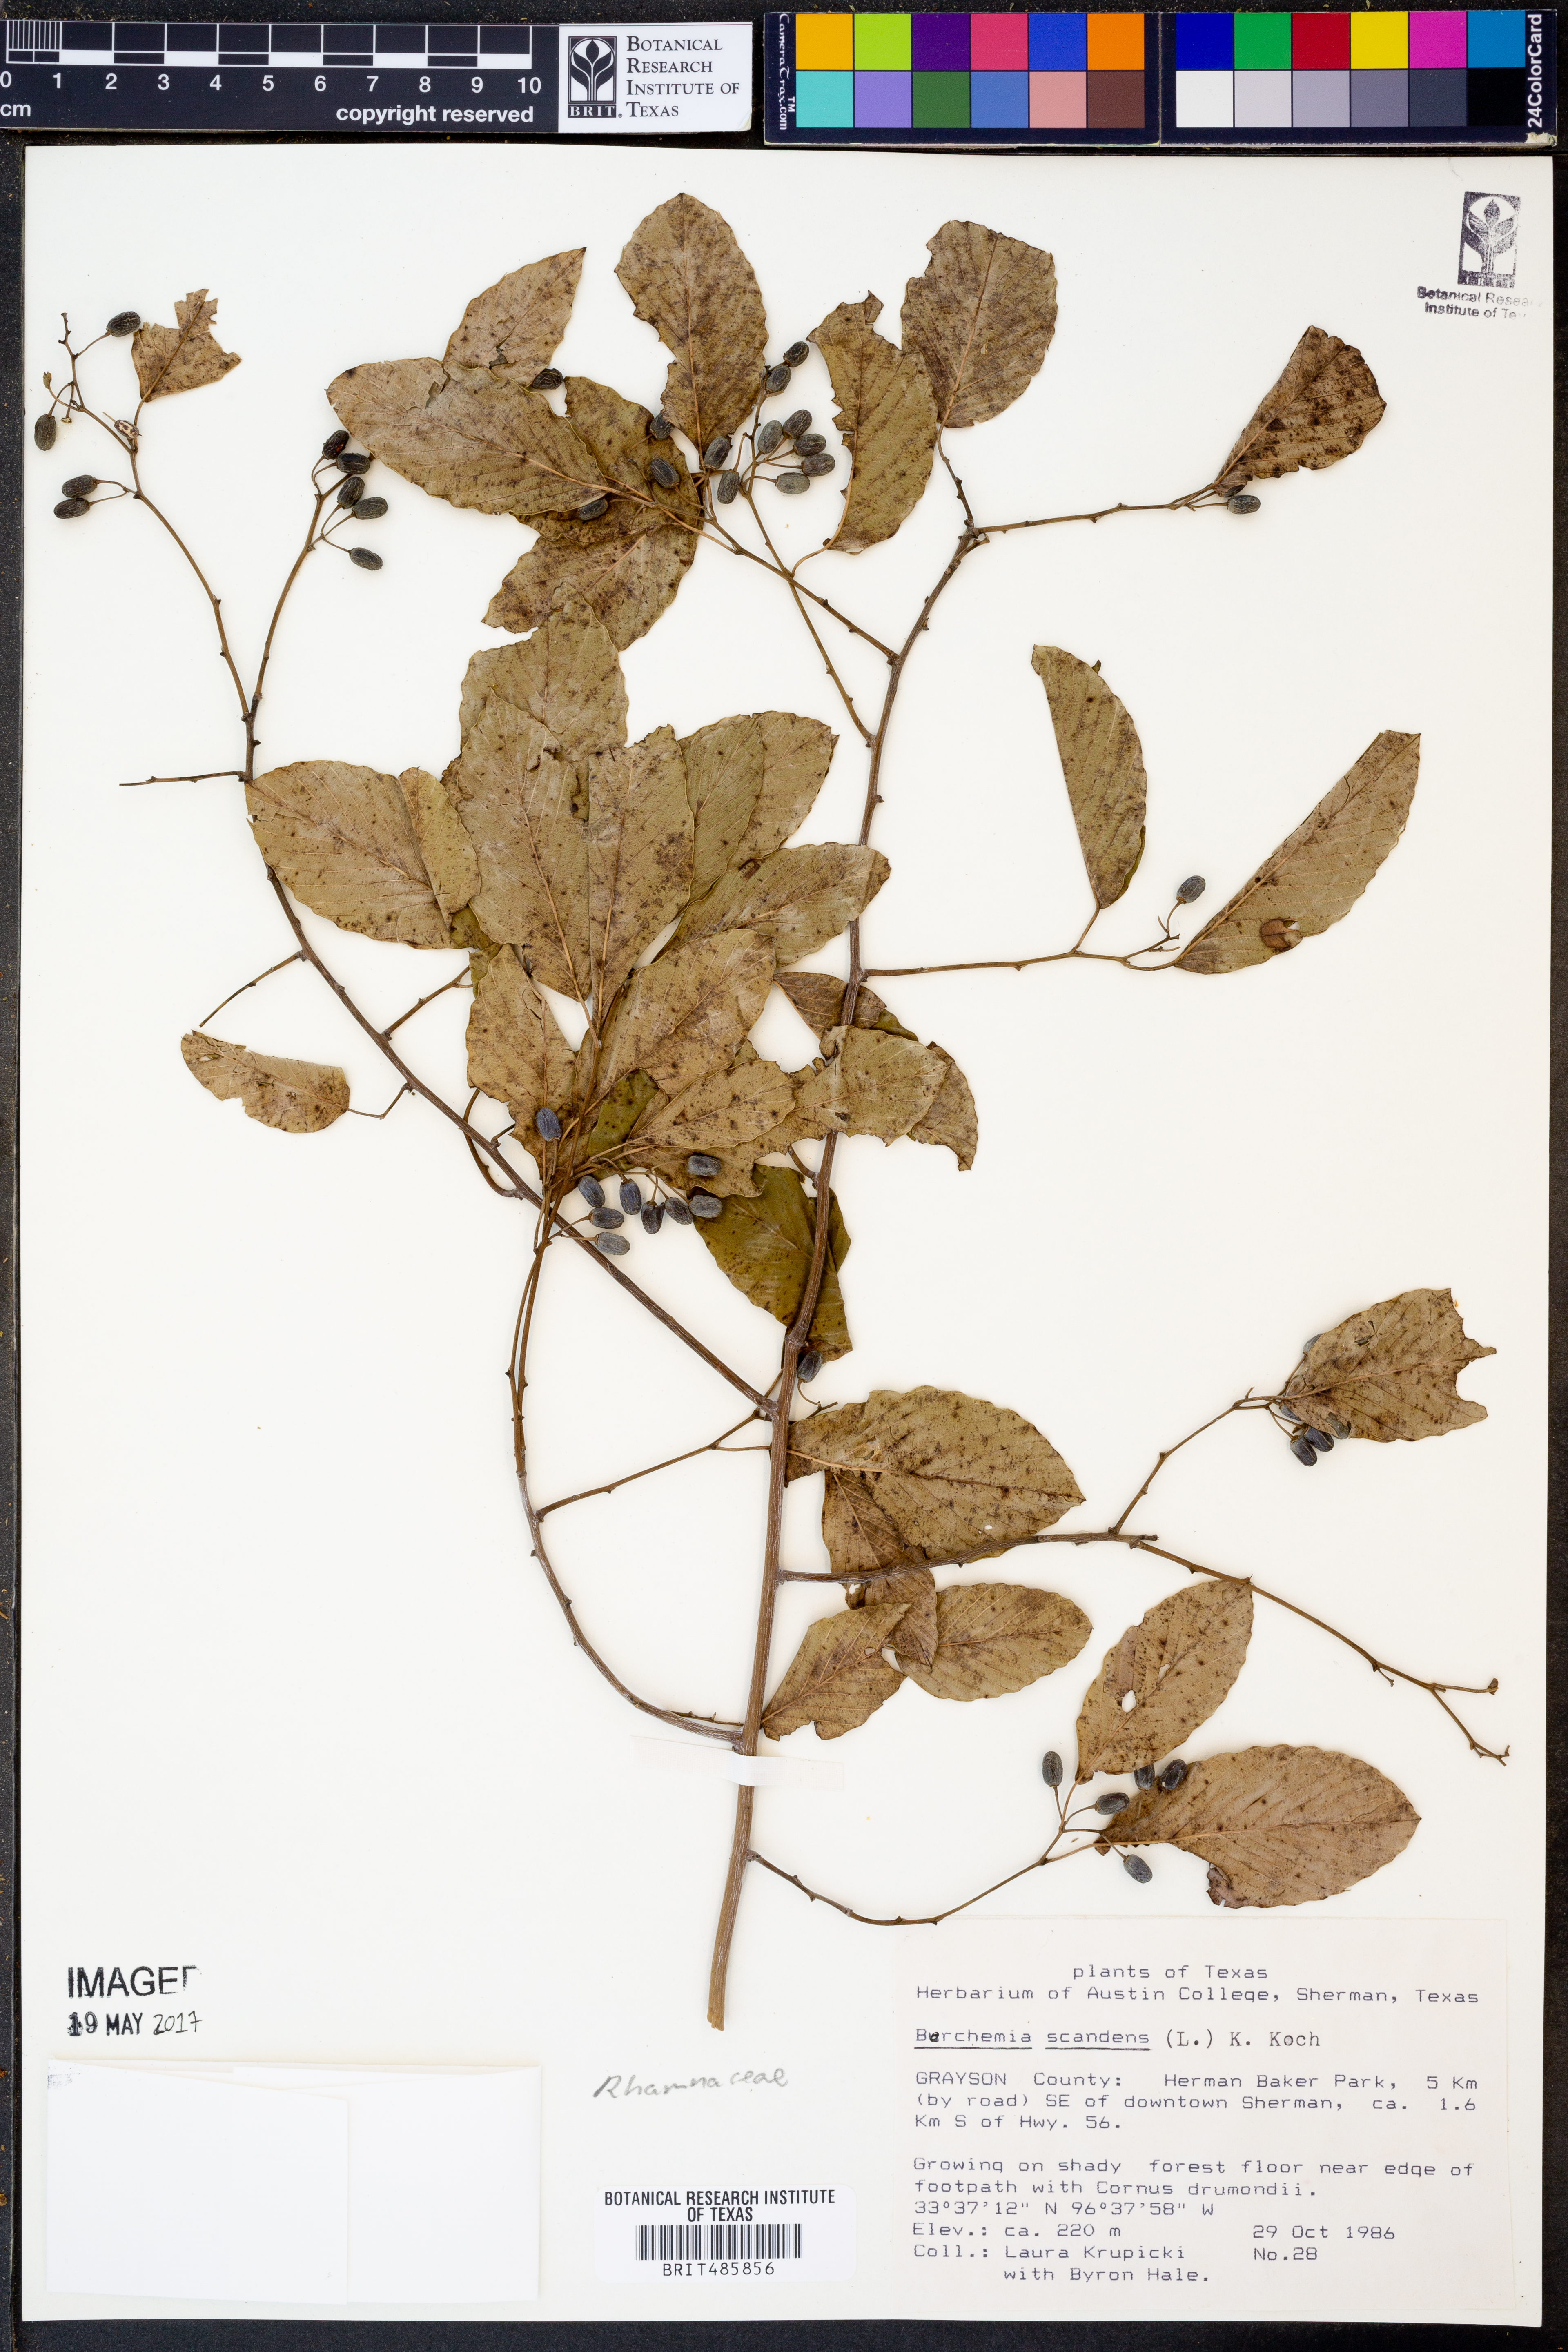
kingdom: Plantae
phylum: Tracheophyta
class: Magnoliopsida
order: Rosales
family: Rhamnaceae
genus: Berchemia
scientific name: Berchemia scandens
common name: Supplejack
